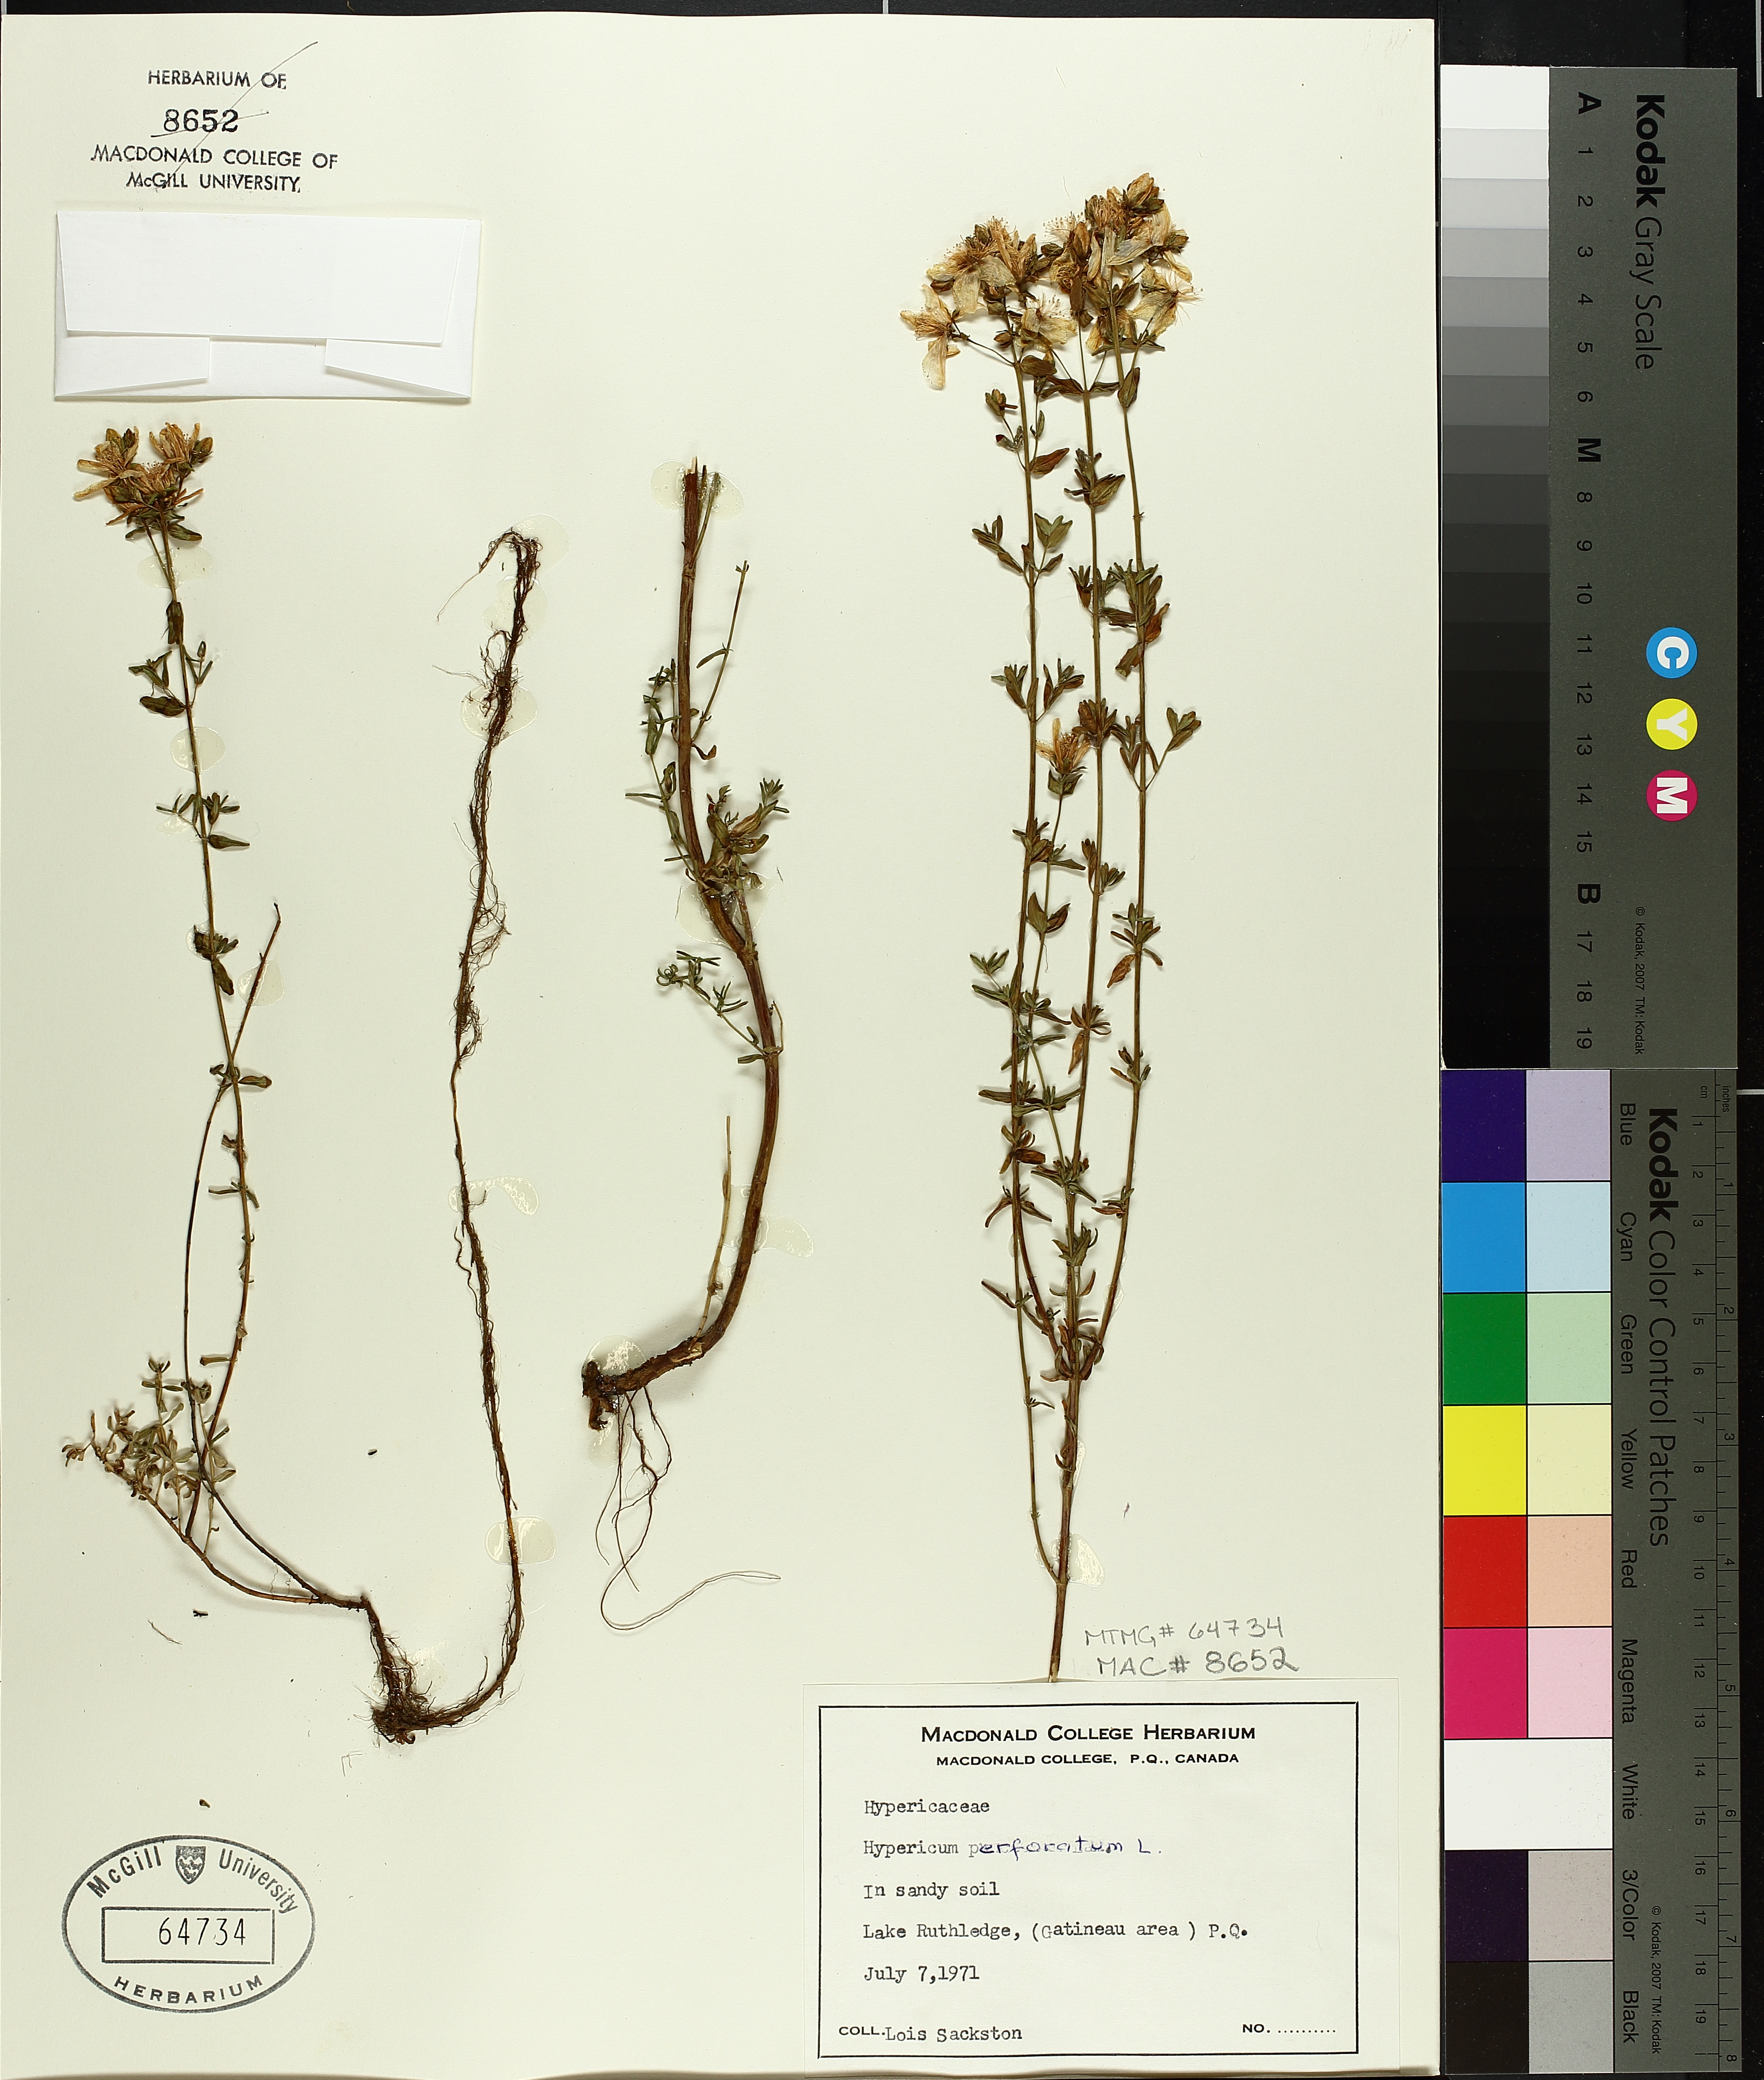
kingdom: Plantae
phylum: Tracheophyta
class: Magnoliopsida
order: Malpighiales
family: Hypericaceae
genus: Hypericum
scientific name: Hypericum perforatum
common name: Common st. johnswort
